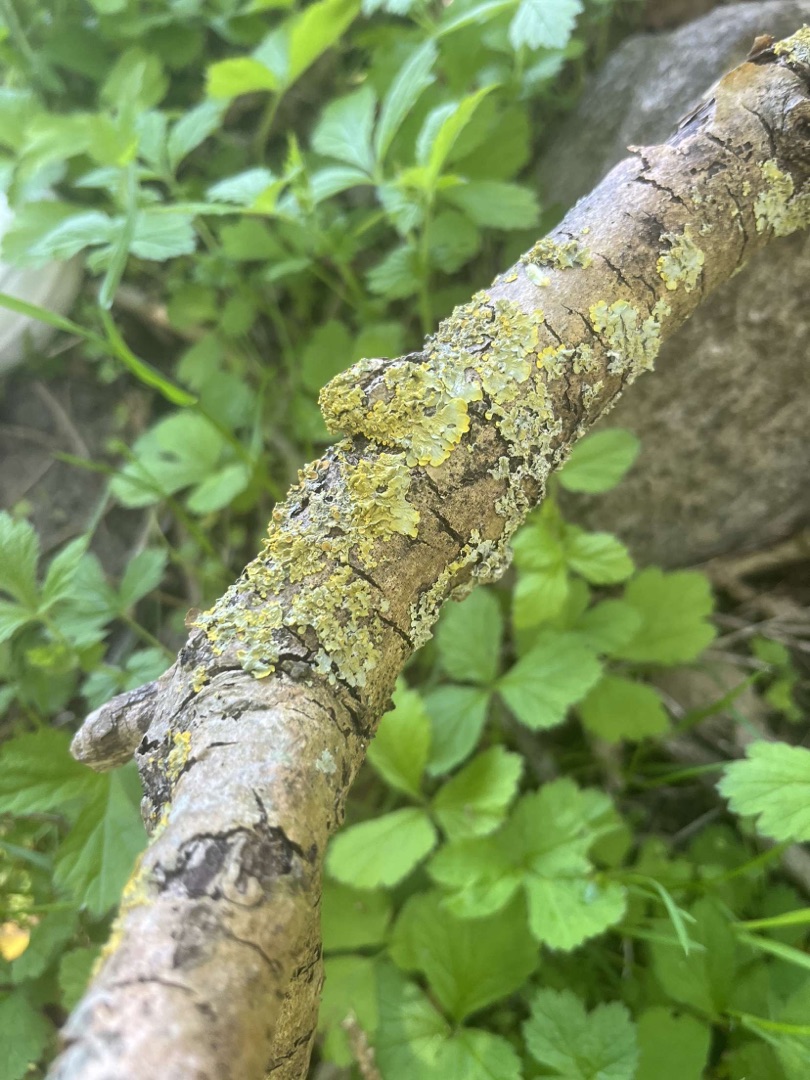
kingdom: Fungi
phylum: Ascomycota
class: Lecanoromycetes
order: Teloschistales
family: Teloschistaceae
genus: Xanthoria
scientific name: Xanthoria parietina
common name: Almindelig væggelav
